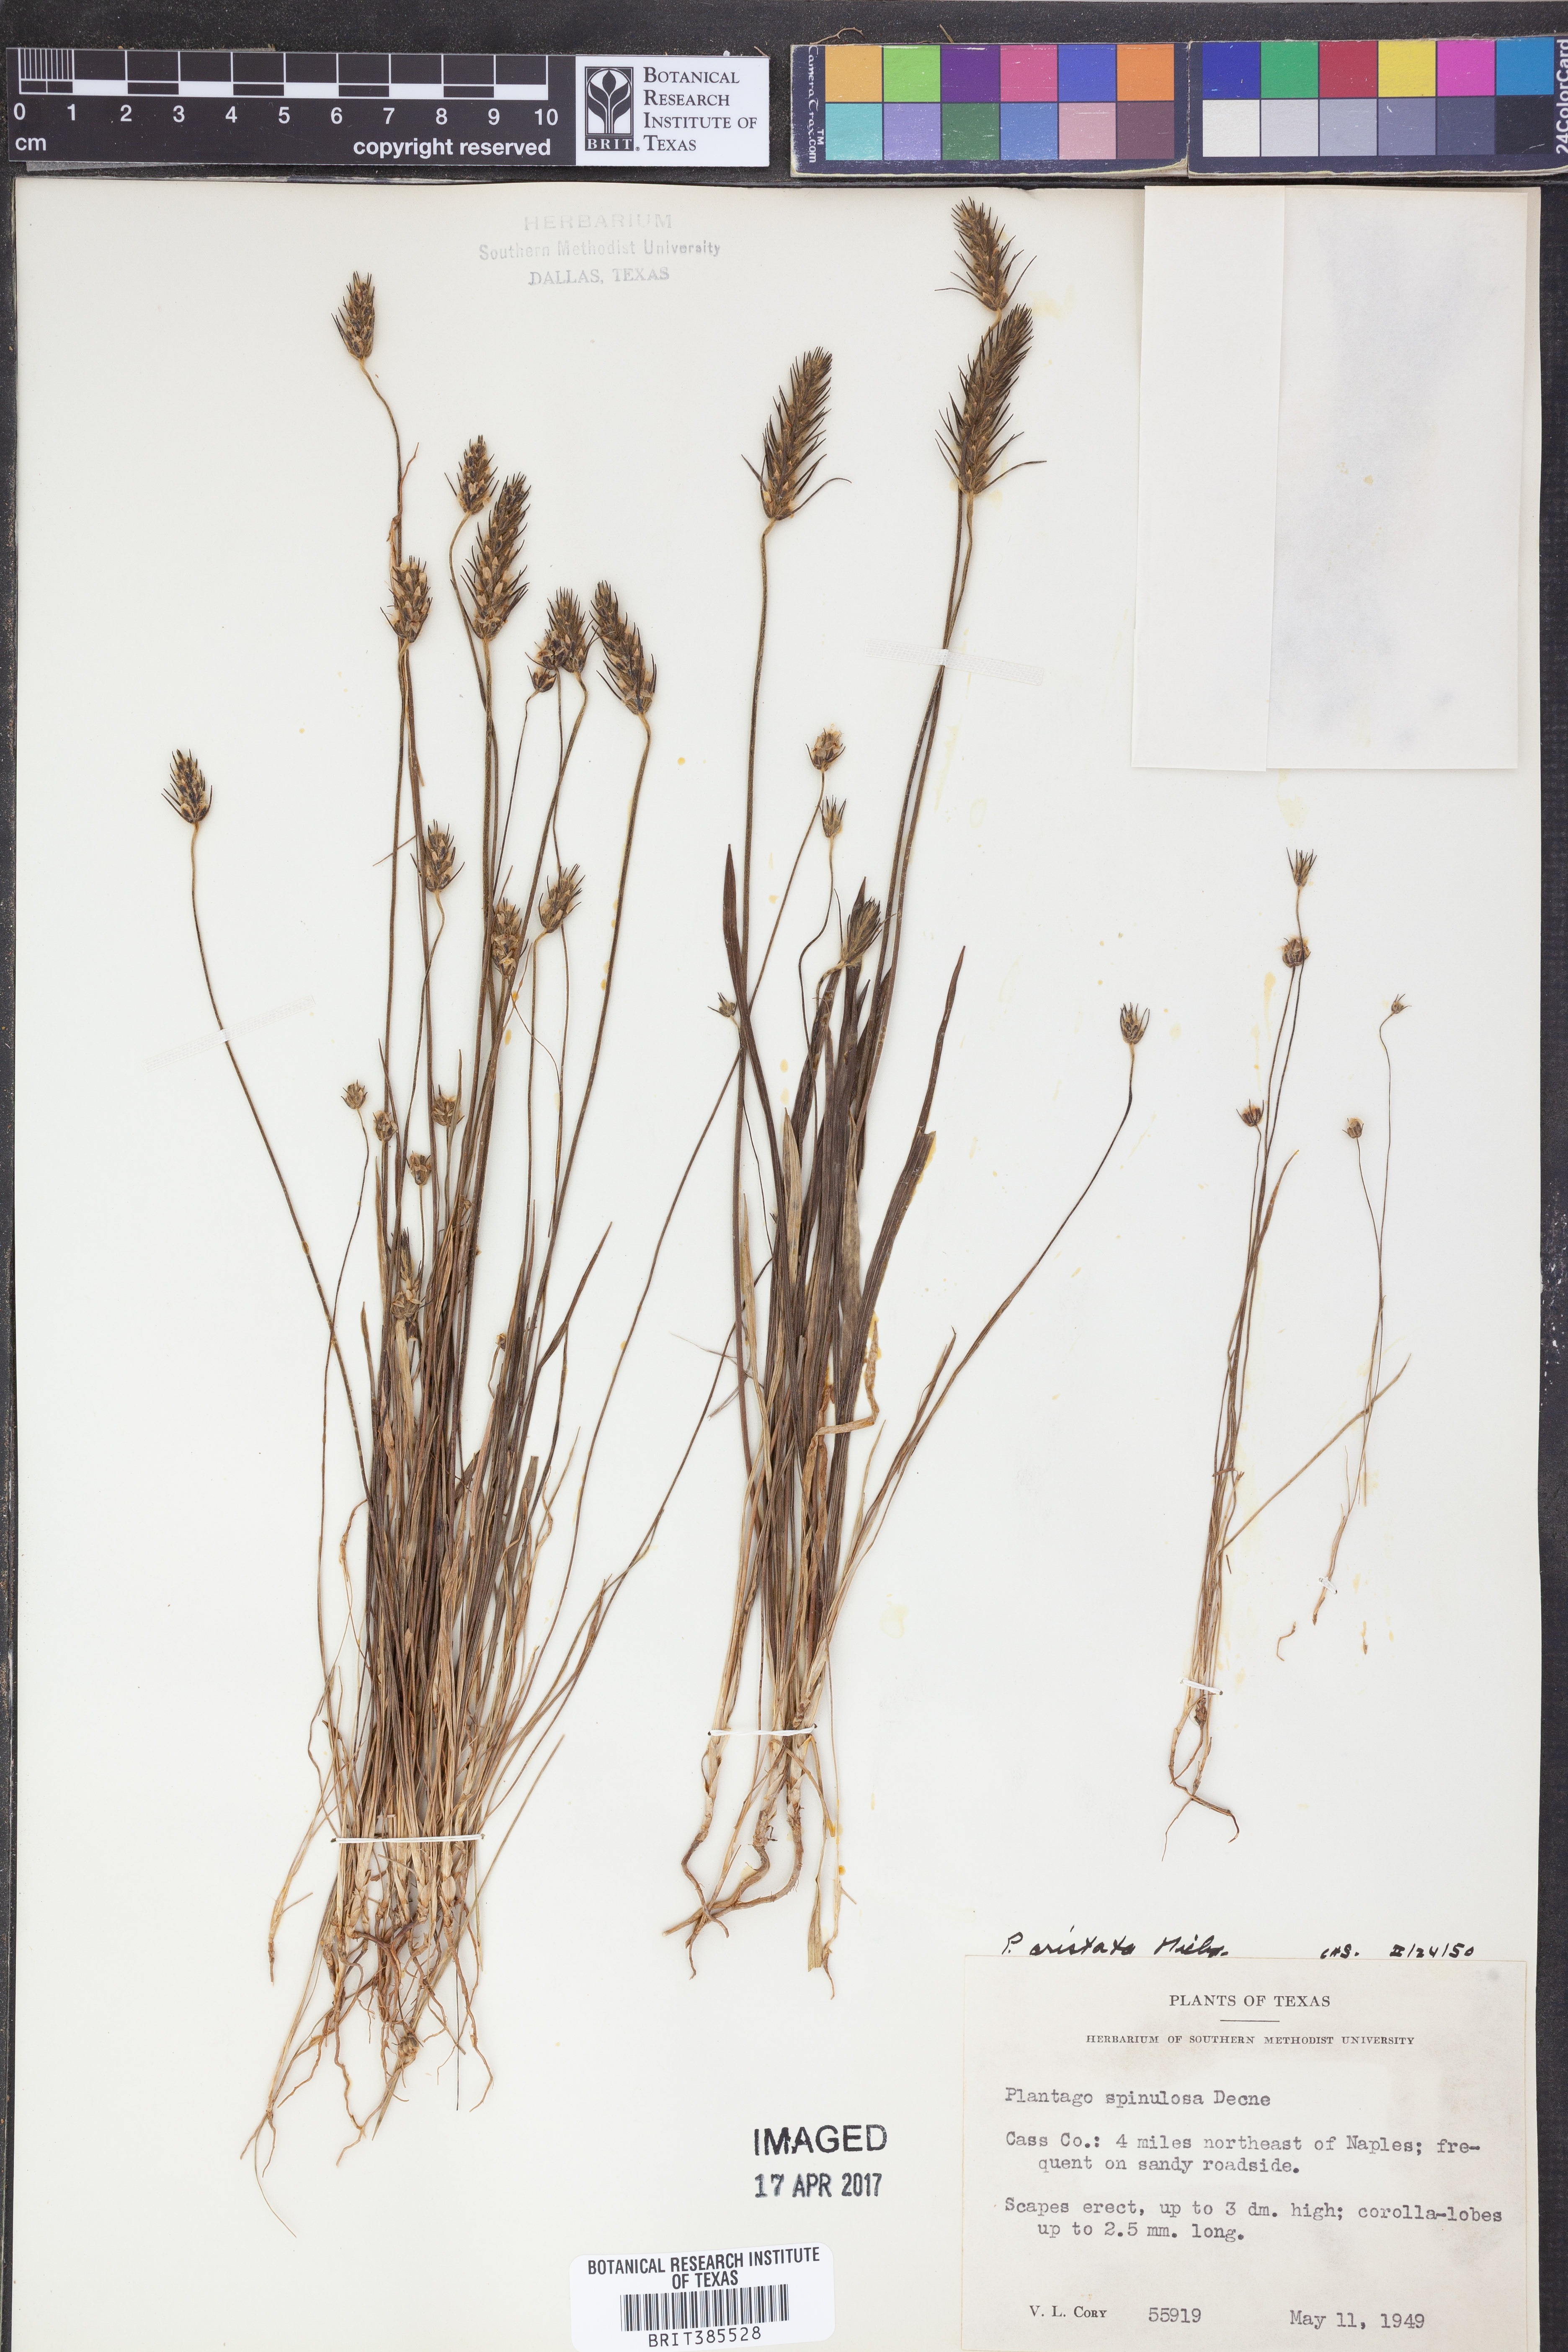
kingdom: Plantae
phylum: Tracheophyta
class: Magnoliopsida
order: Lamiales
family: Plantaginaceae
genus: Plantago
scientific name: Plantago aristata
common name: Bracted plantain
